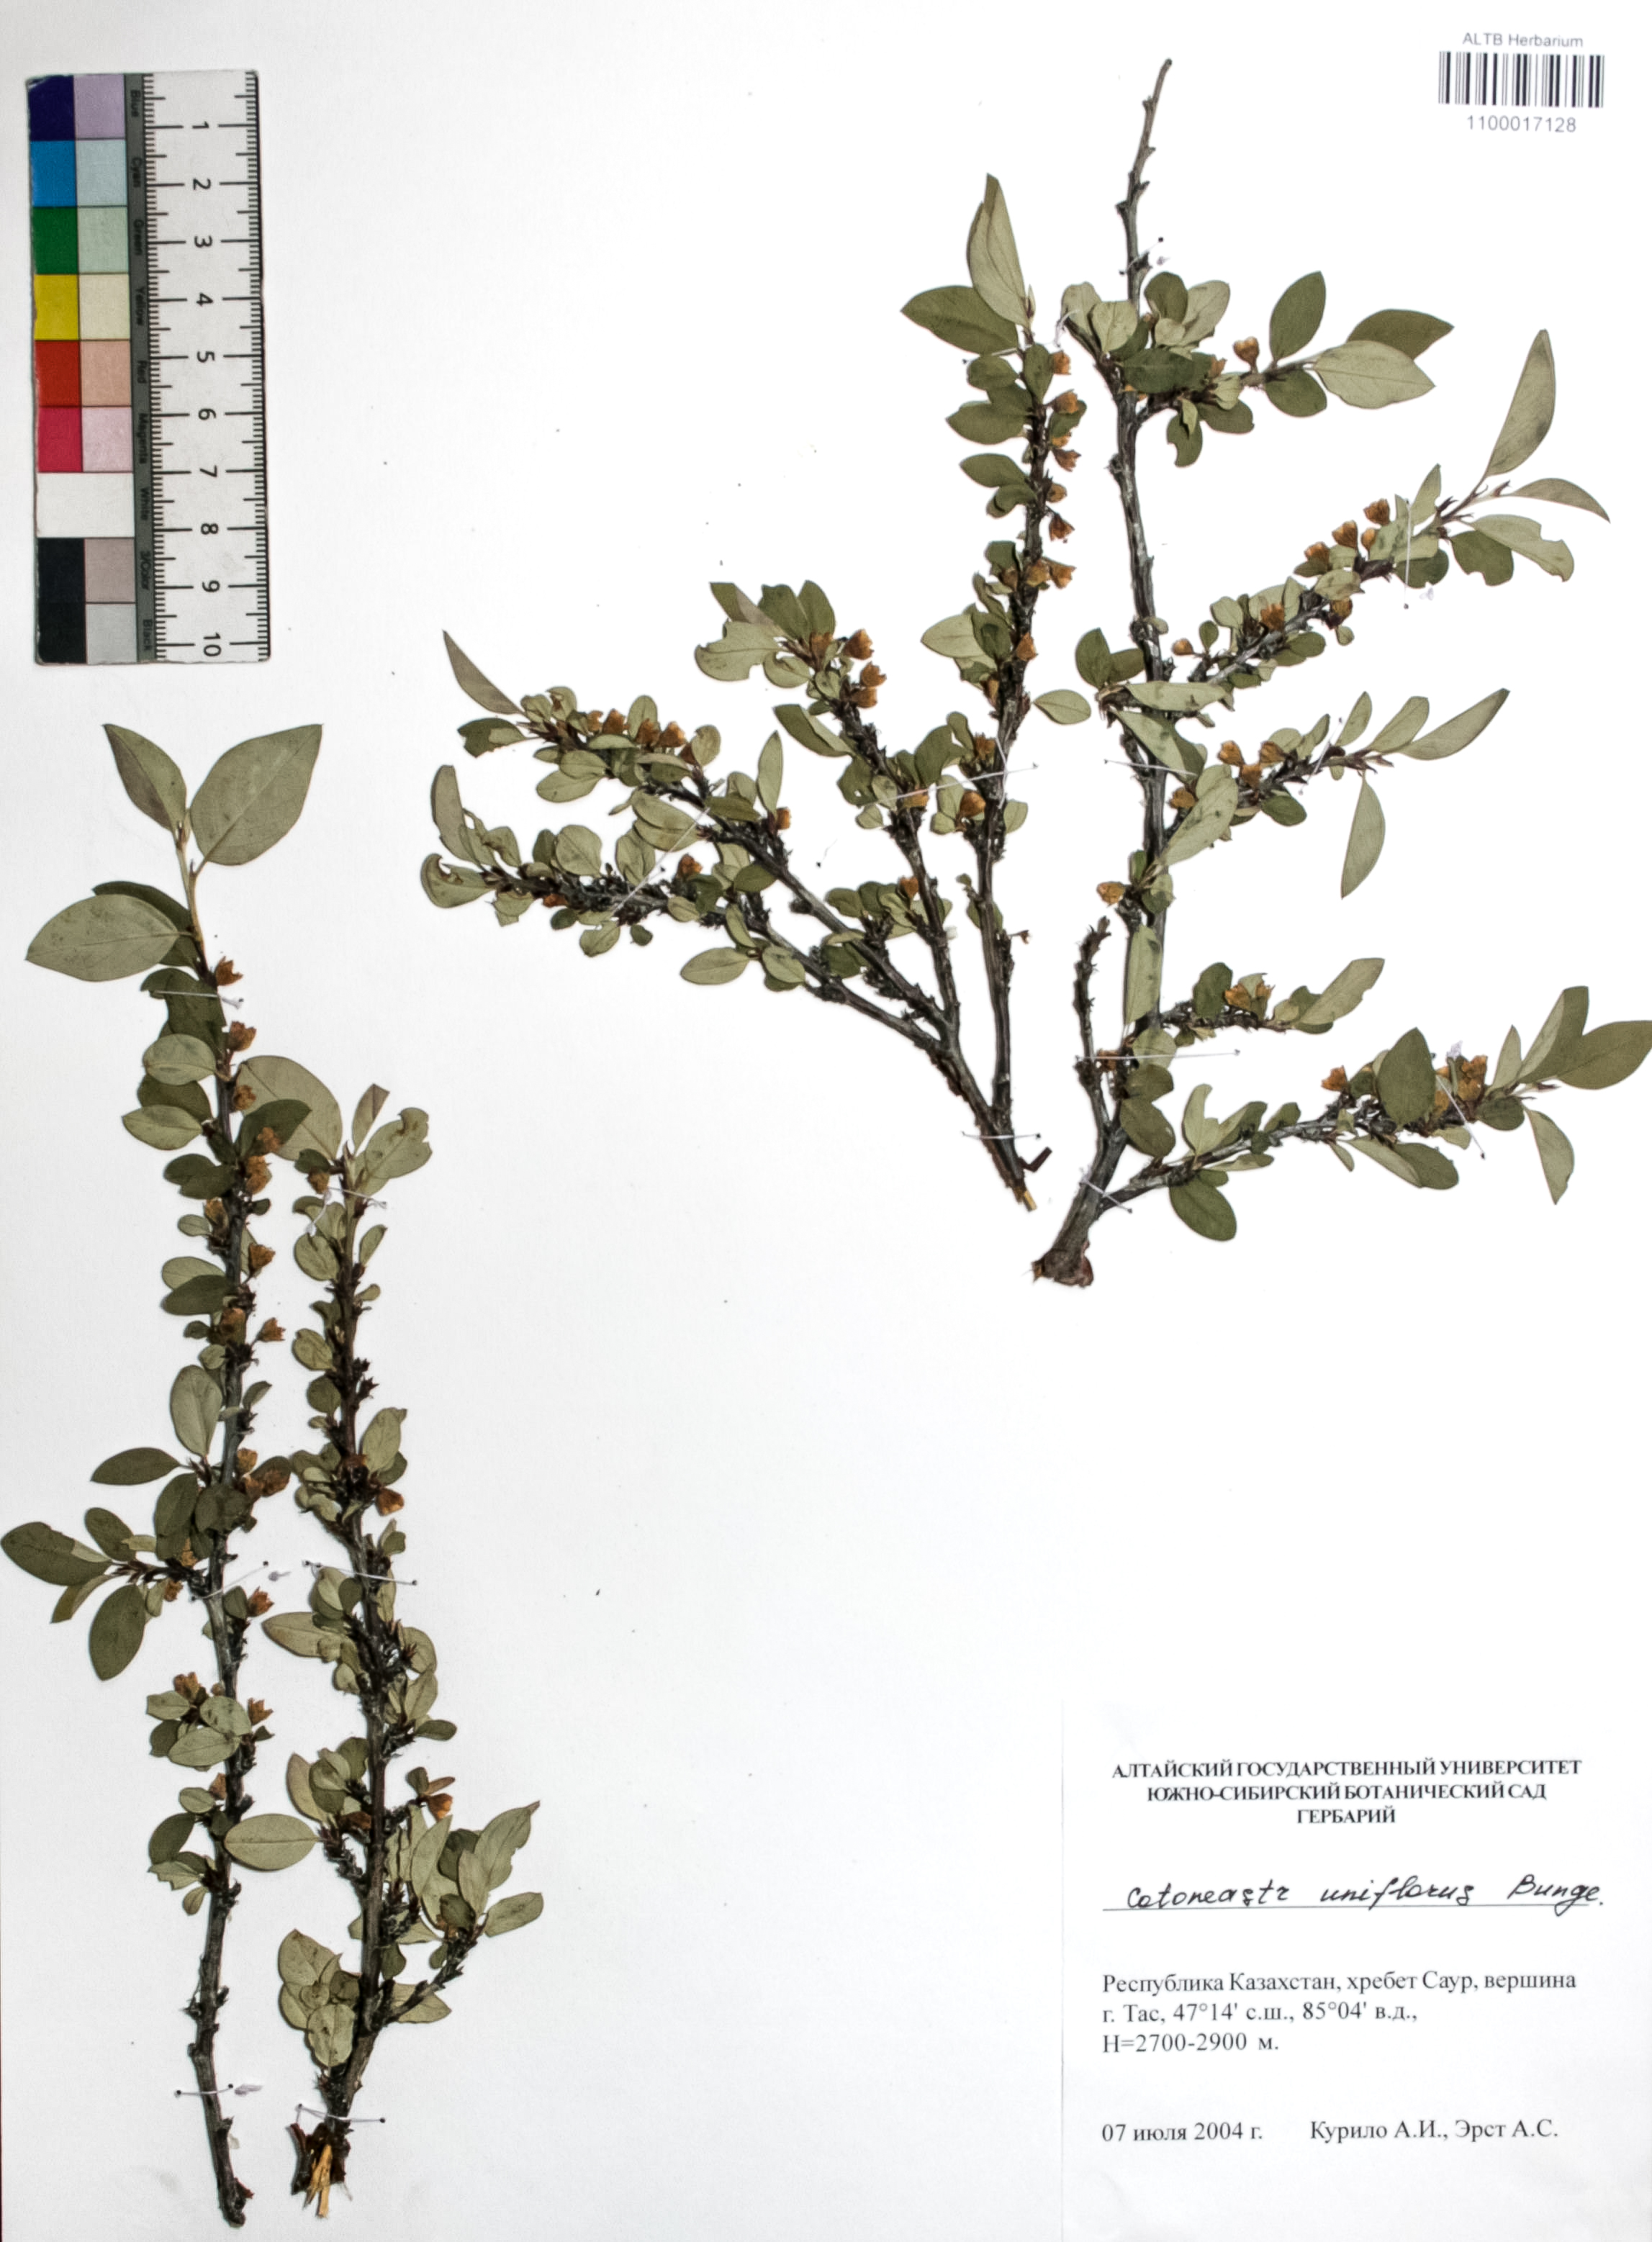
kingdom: Plantae
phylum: Tracheophyta
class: Magnoliopsida
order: Rosales
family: Rosaceae
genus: Cotoneaster
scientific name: Cotoneaster uniflorus
